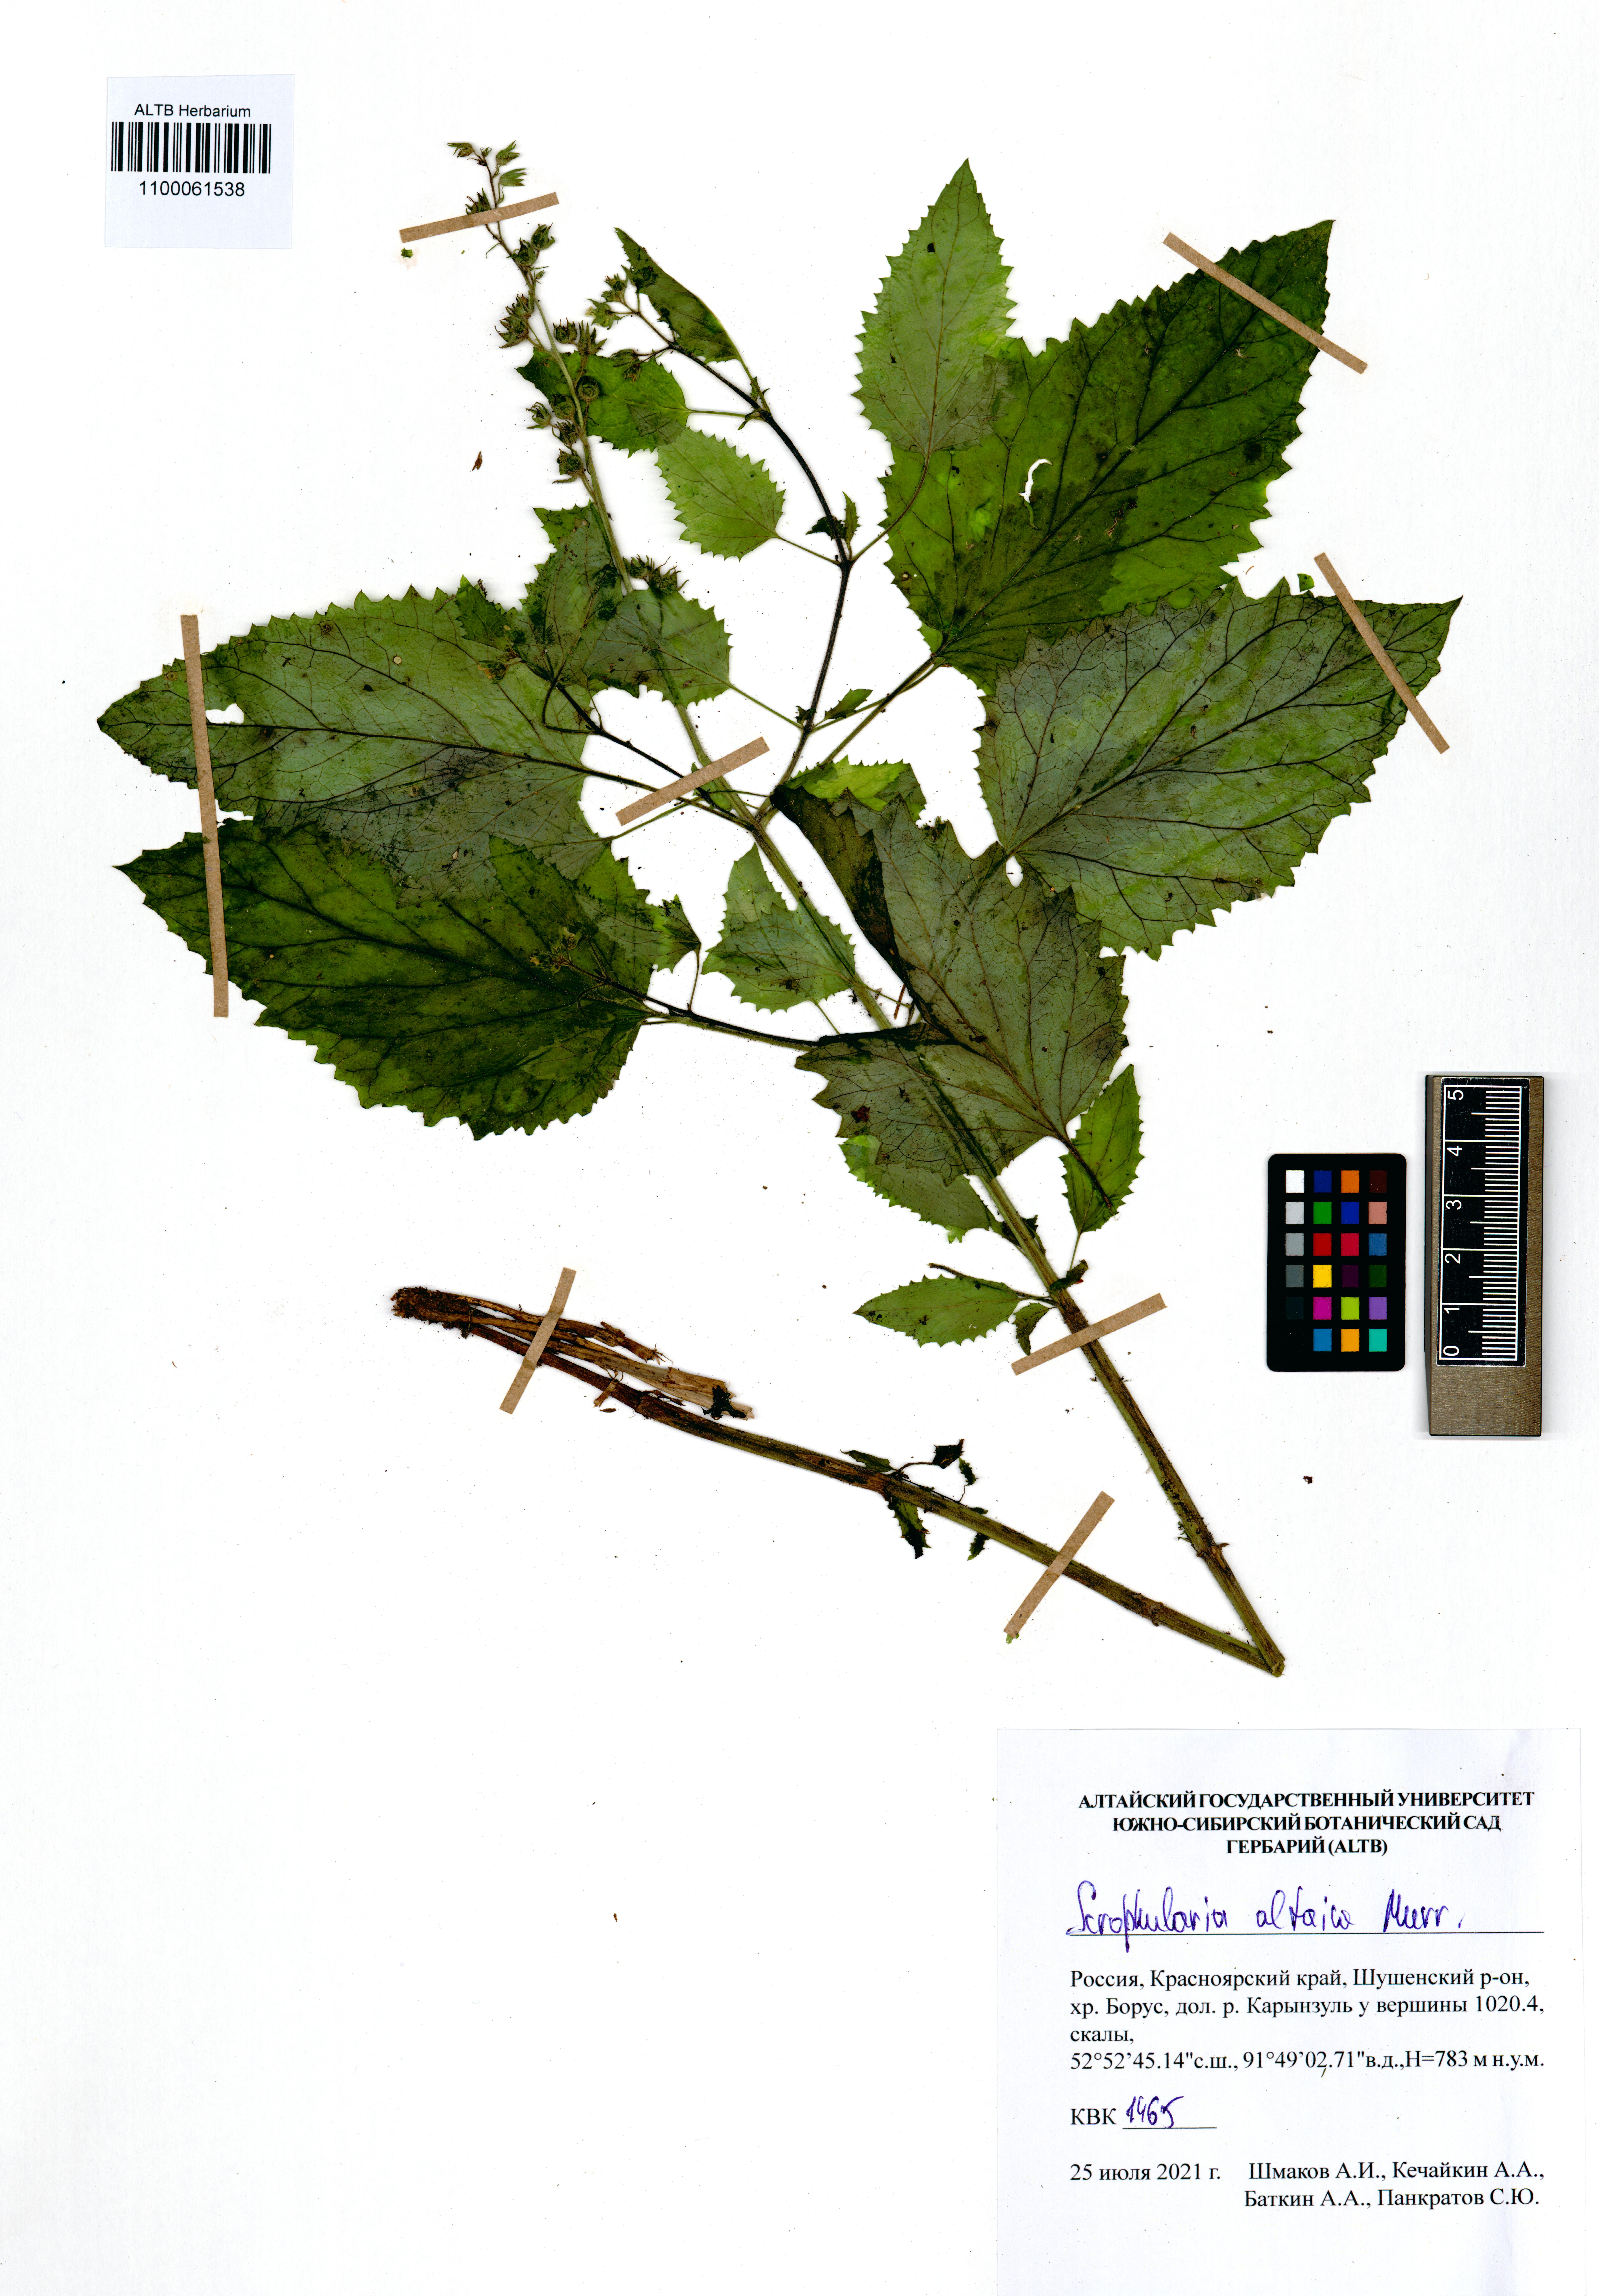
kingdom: Plantae
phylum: Tracheophyta
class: Magnoliopsida
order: Lamiales
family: Scrophulariaceae
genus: Scrophularia
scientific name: Scrophularia altaica
